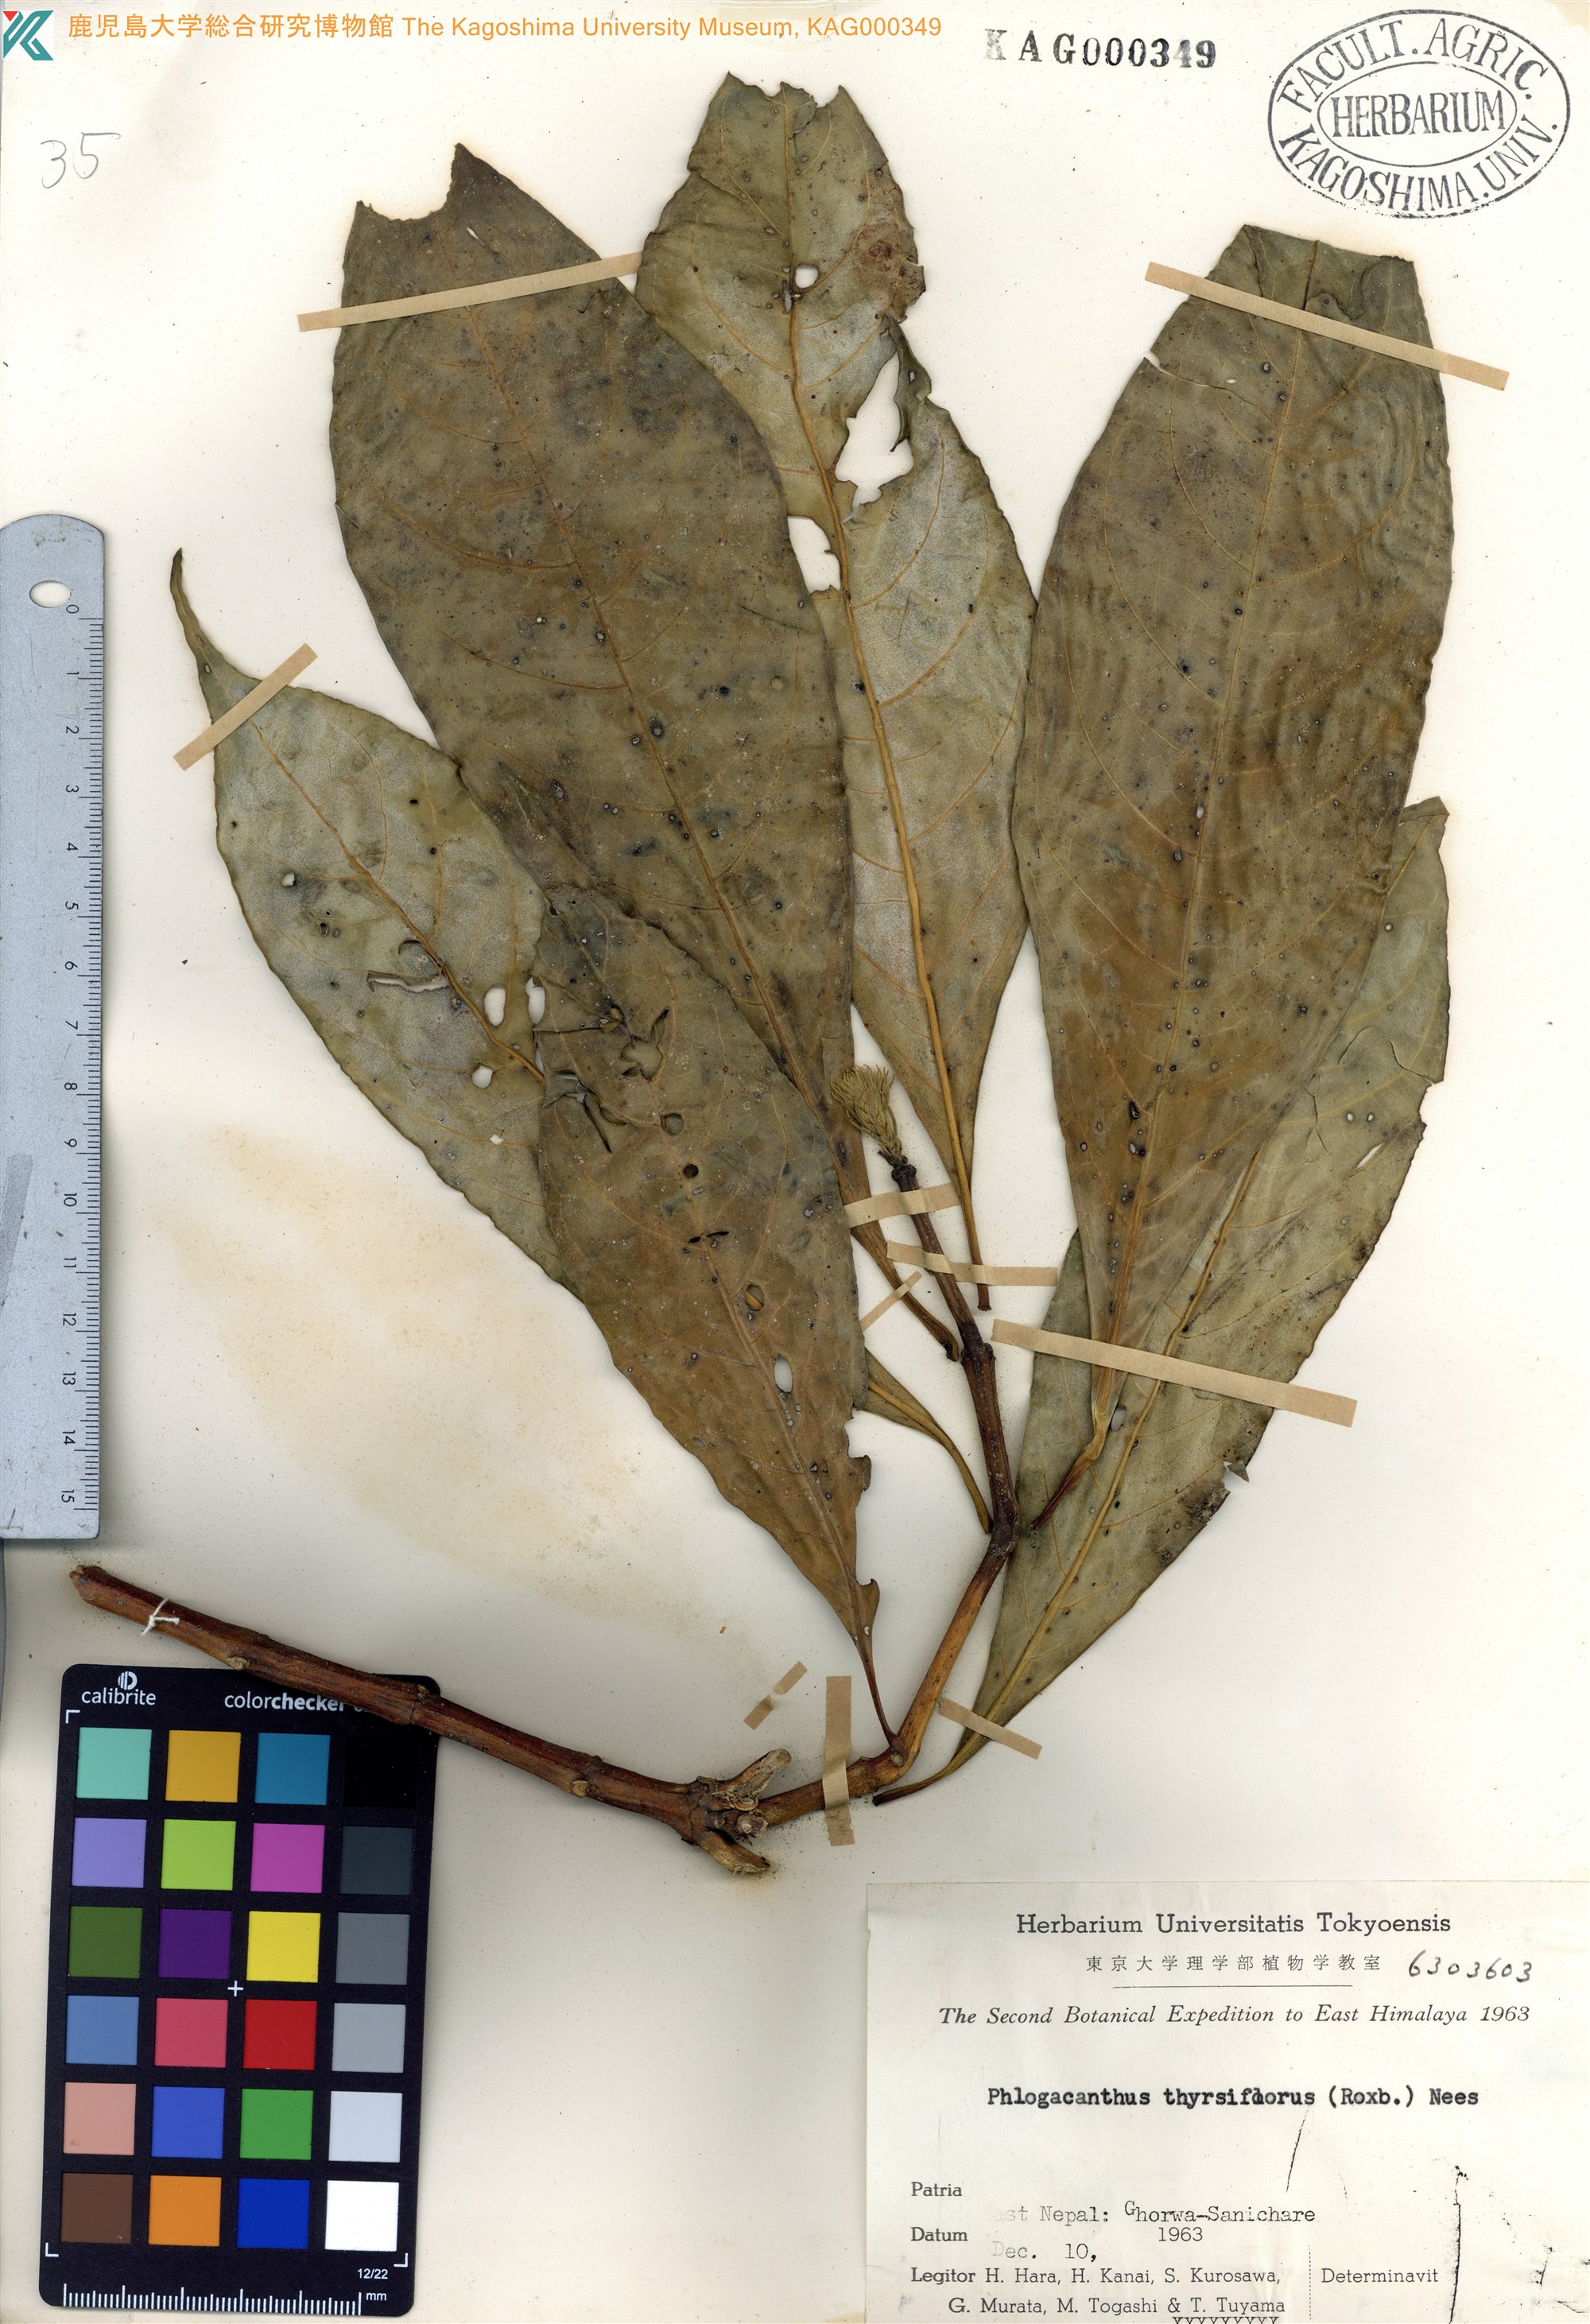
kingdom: Plantae
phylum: Tracheophyta
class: Magnoliopsida
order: Lamiales
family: Acanthaceae
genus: Phlogacanthus
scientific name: Phlogacanthus thyrsiformis
